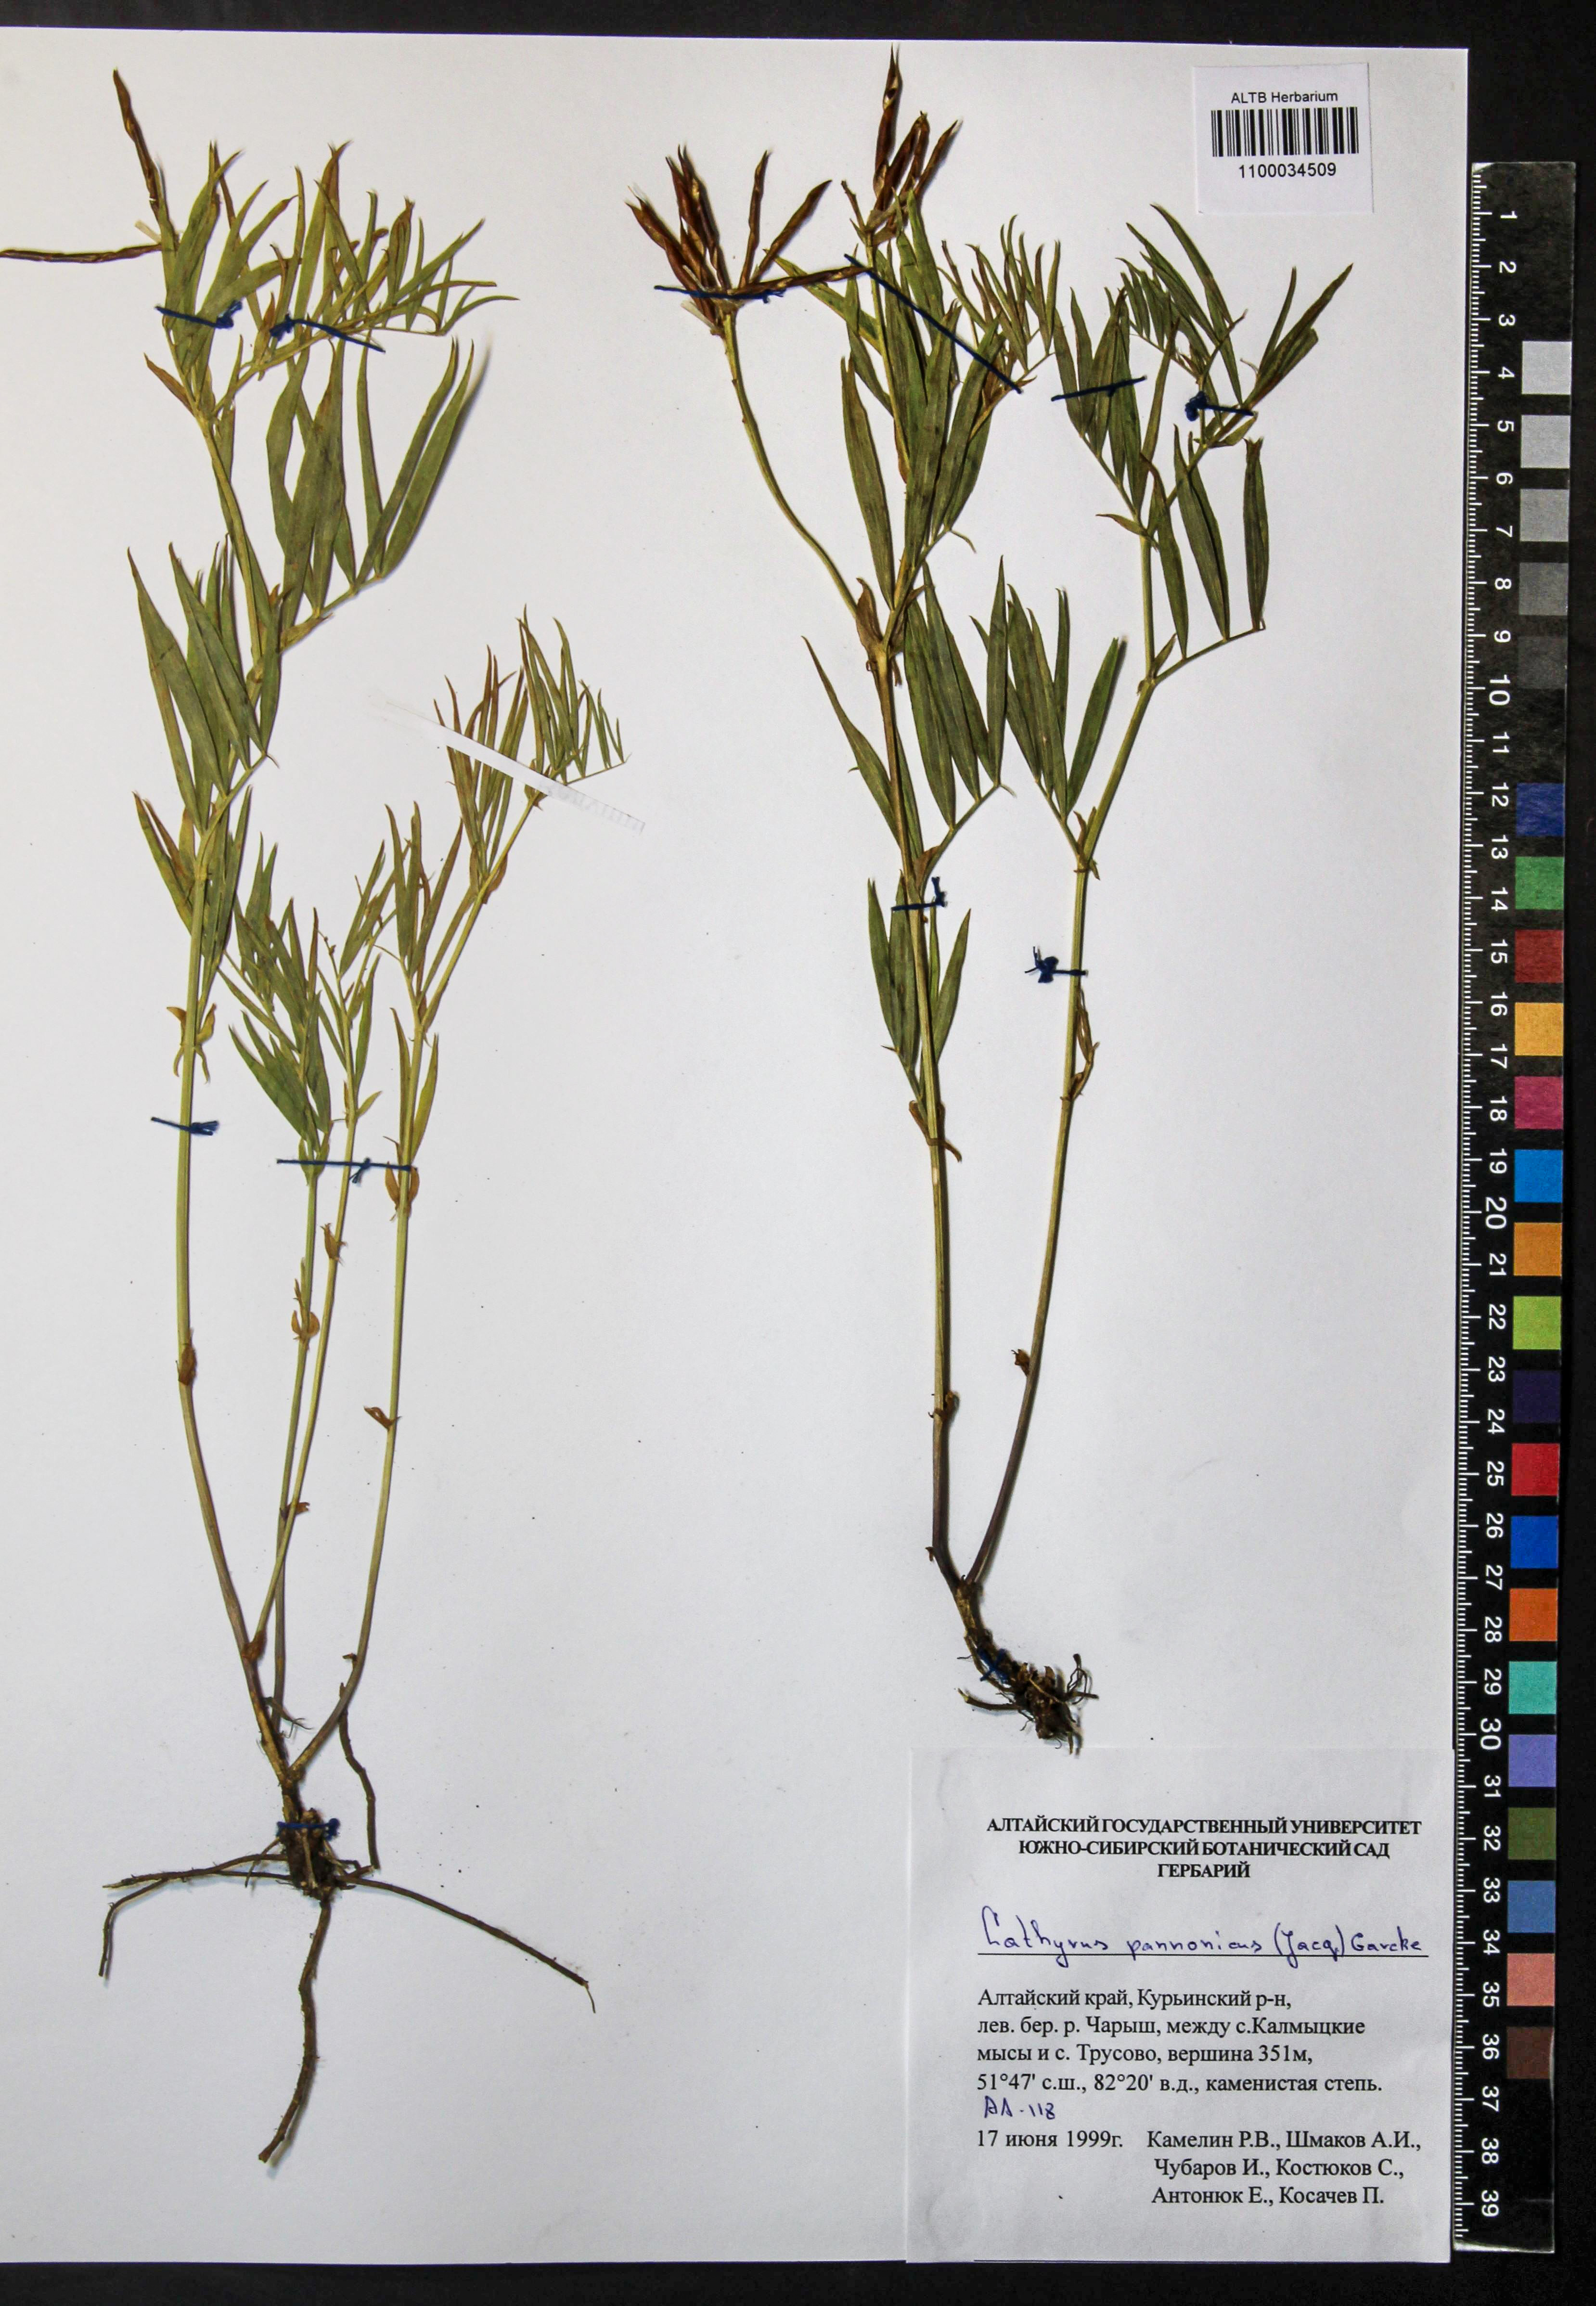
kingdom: Plantae
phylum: Tracheophyta
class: Magnoliopsida
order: Fabales
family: Fabaceae
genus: Lathyrus
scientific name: Lathyrus pannonicus
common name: Pea
